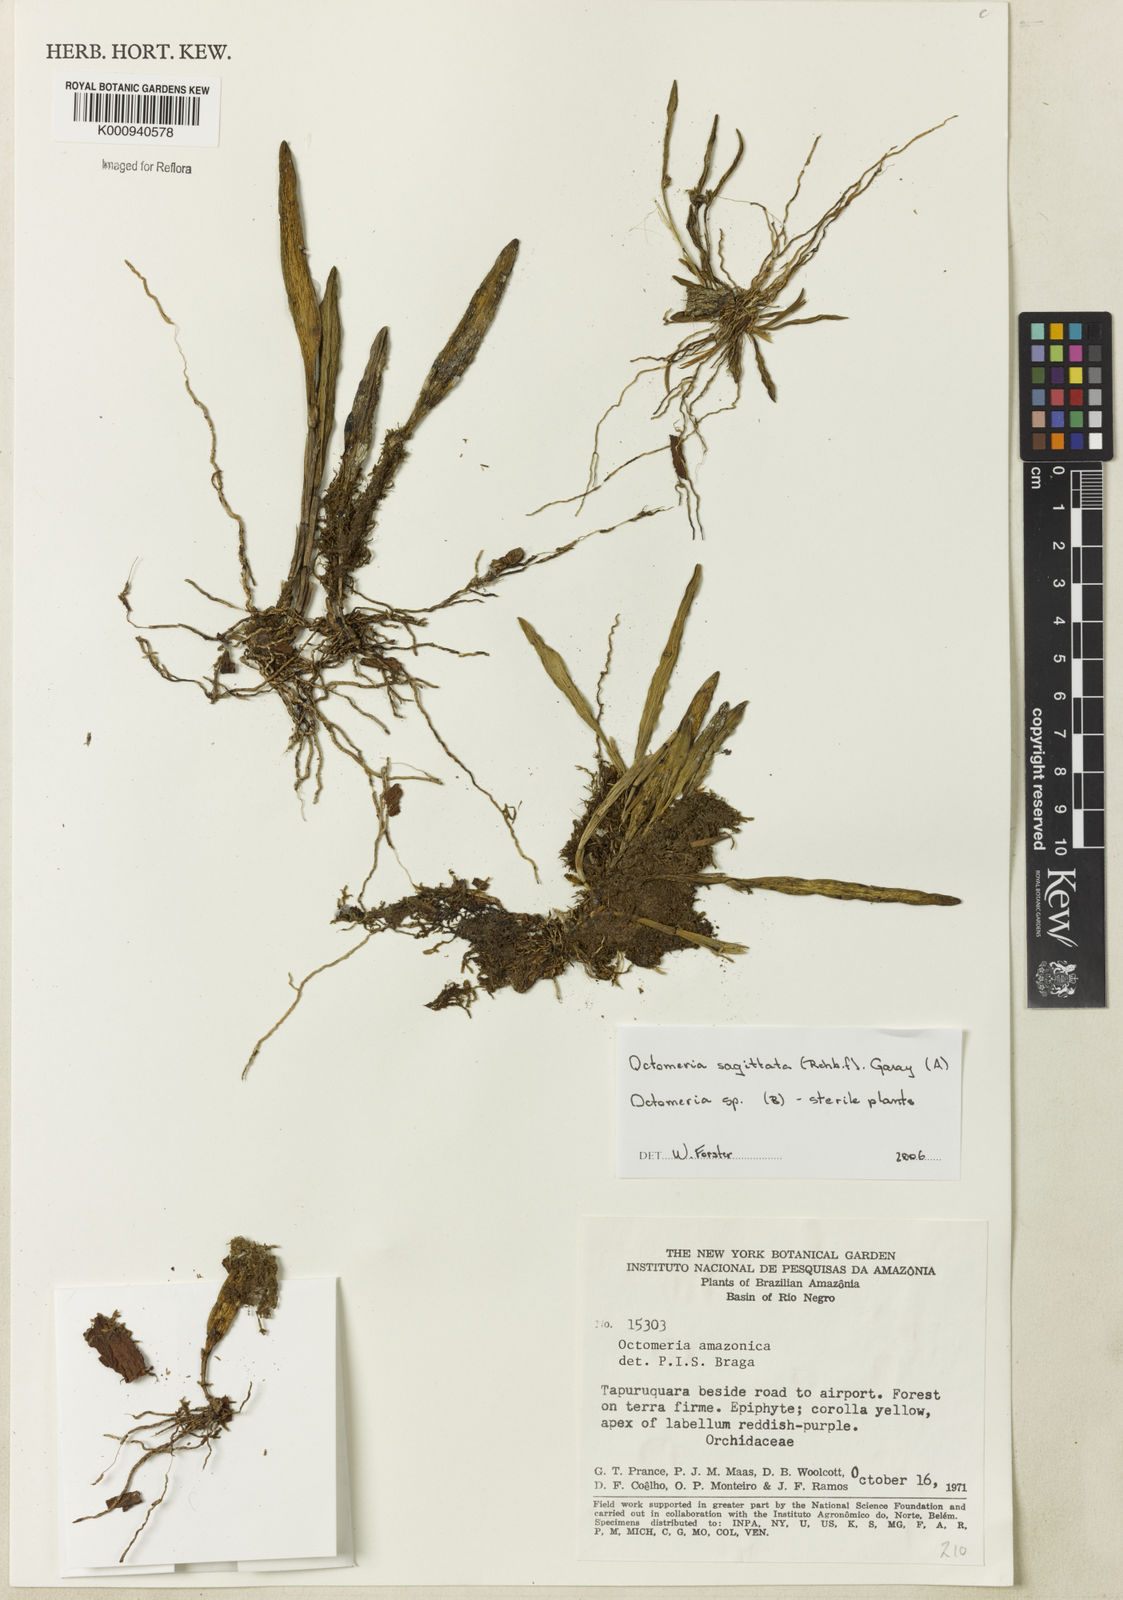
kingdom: Plantae
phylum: Tracheophyta
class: Liliopsida
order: Asparagales
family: Orchidaceae
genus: Octomeria
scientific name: Octomeria colombiana
